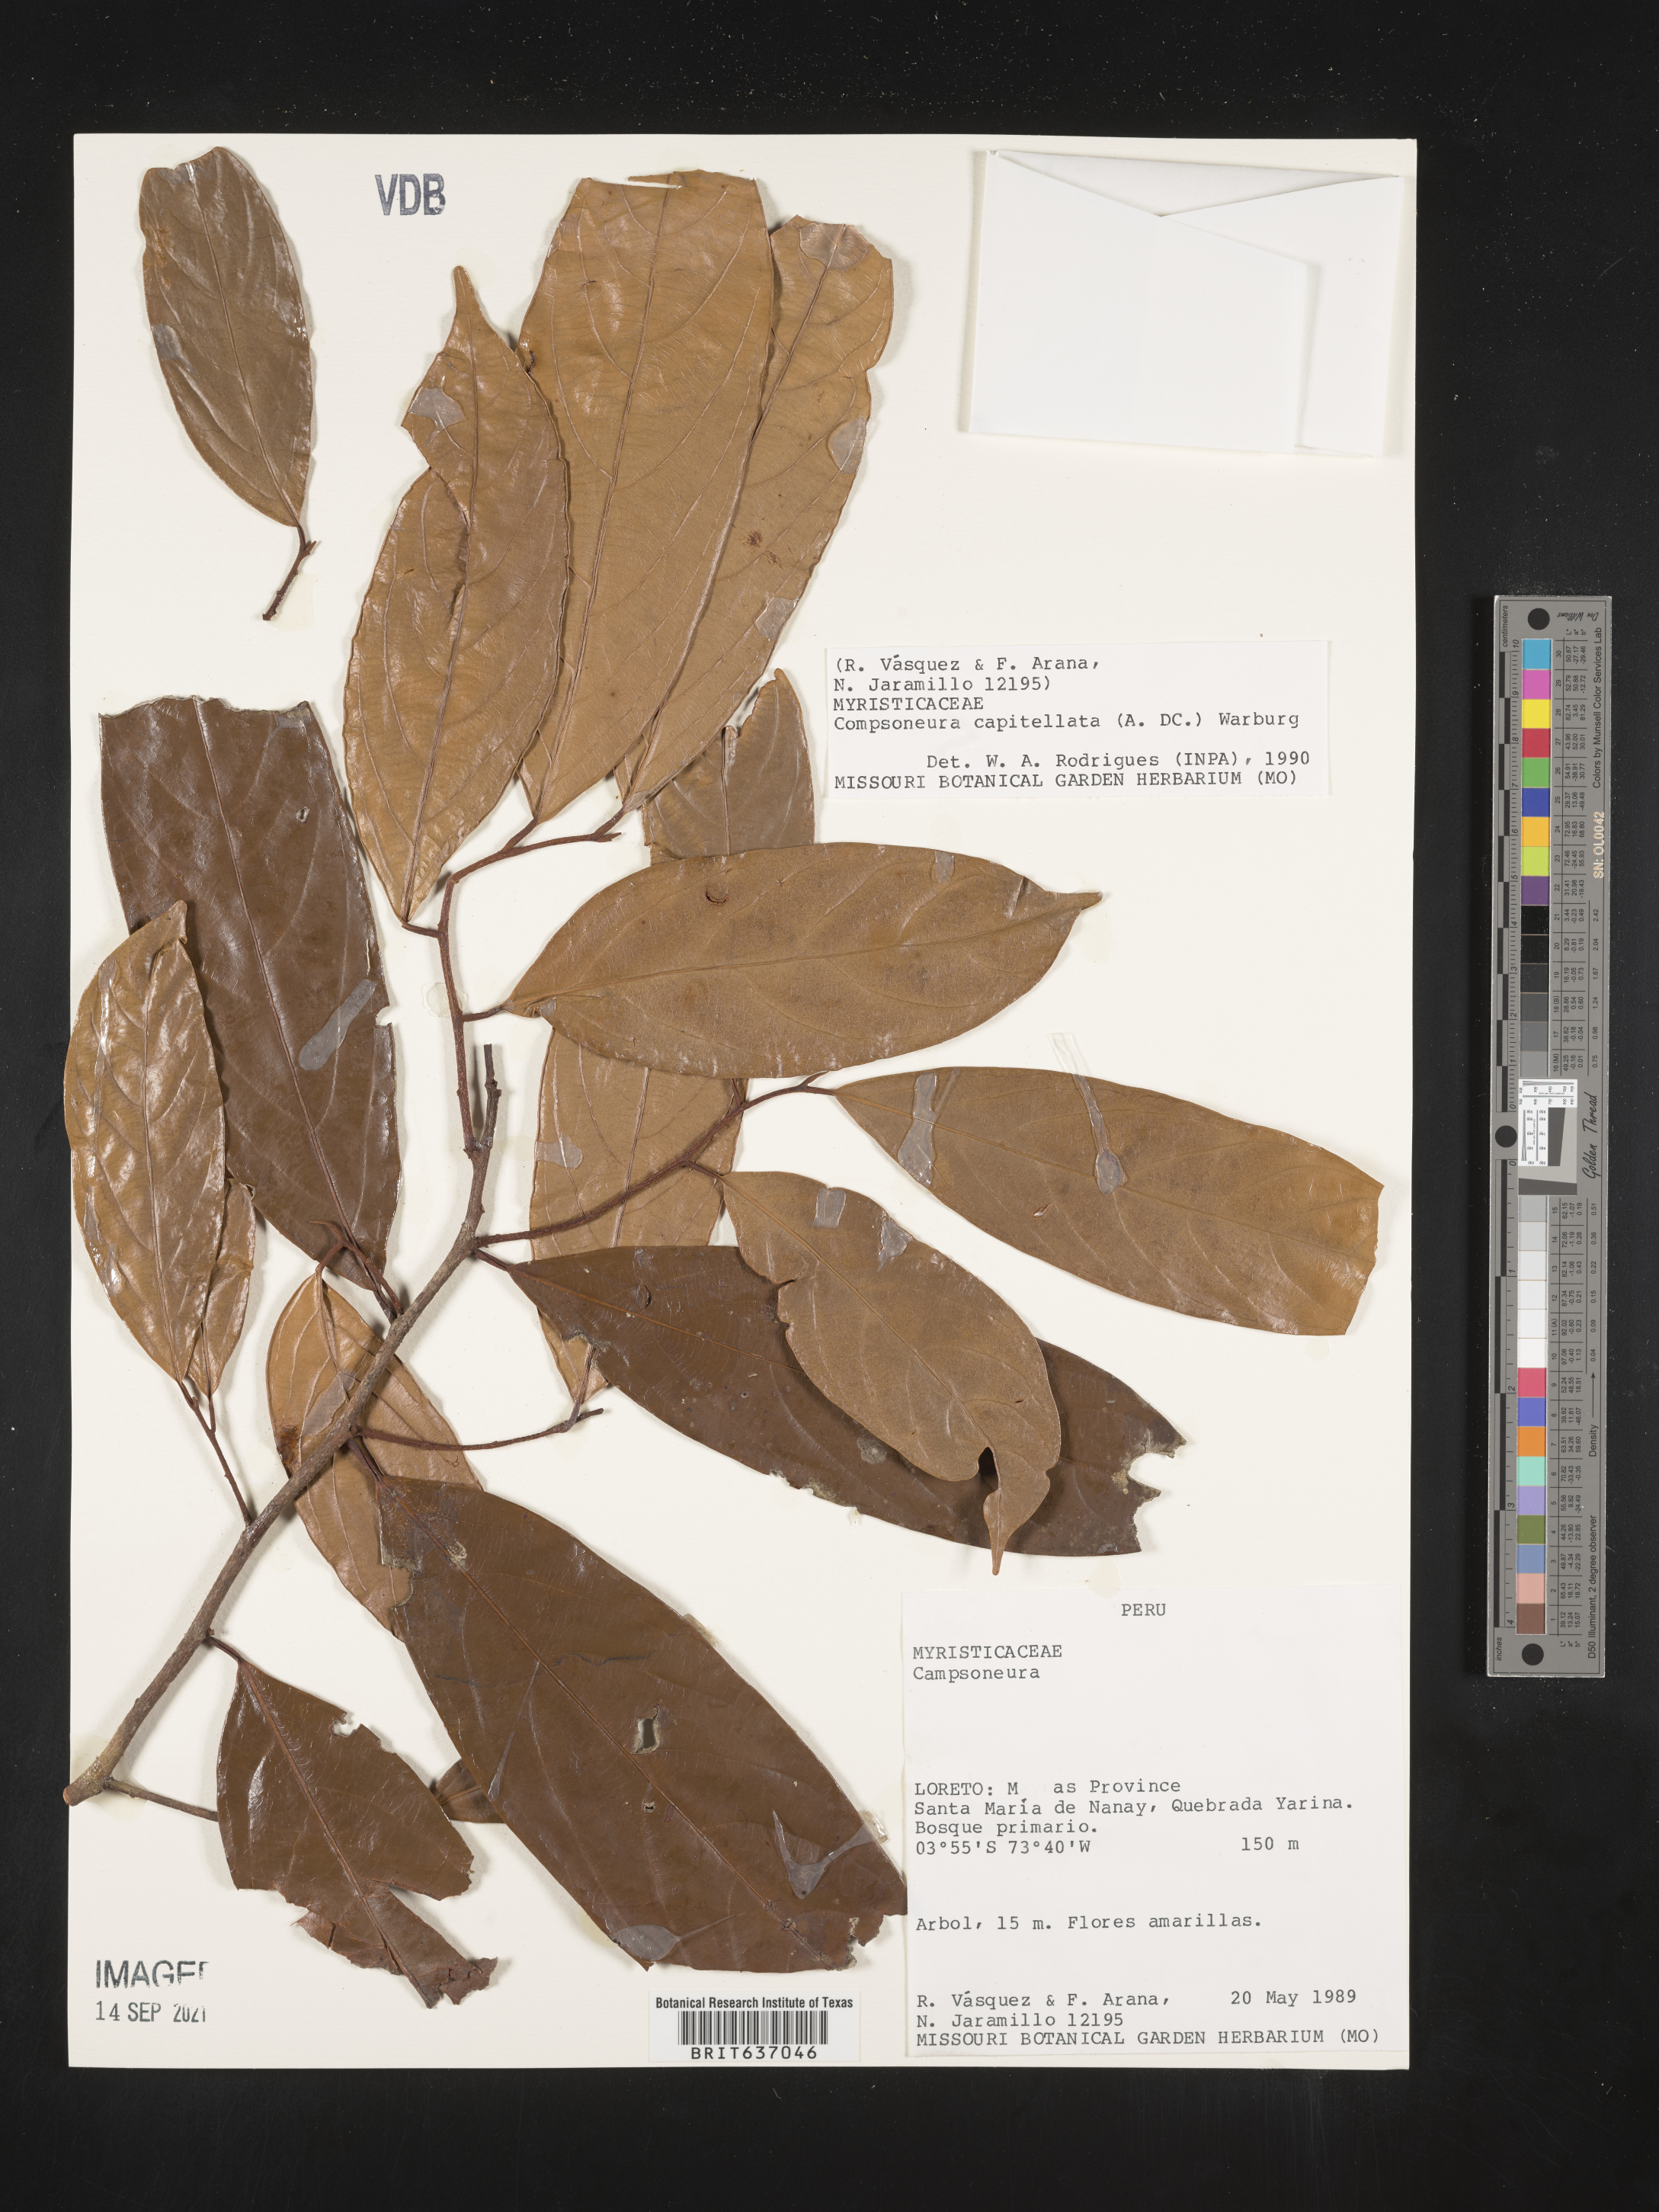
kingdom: Plantae
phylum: Tracheophyta
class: Magnoliopsida
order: Magnoliales
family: Myristicaceae
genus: Compsoneura
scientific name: Compsoneura
